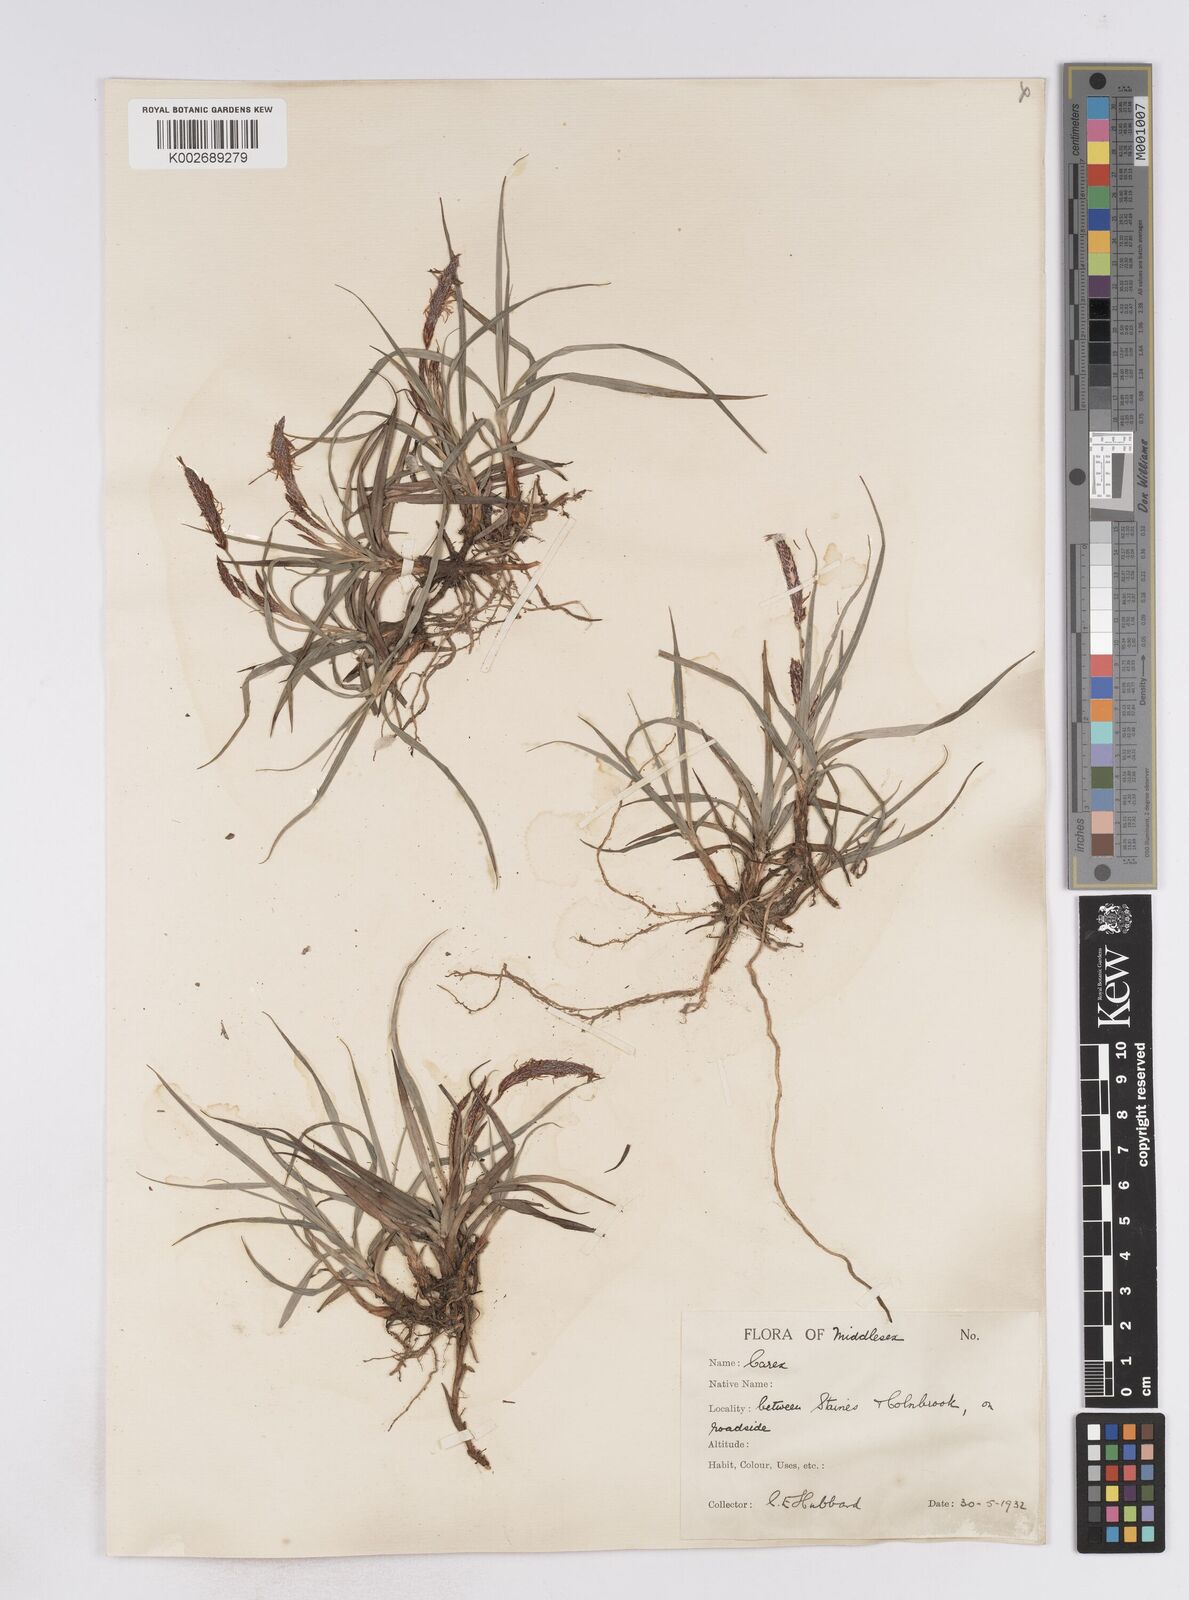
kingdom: Plantae
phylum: Tracheophyta
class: Liliopsida
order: Poales
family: Cyperaceae
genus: Carex
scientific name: Carex flacca
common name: Glaucous sedge
